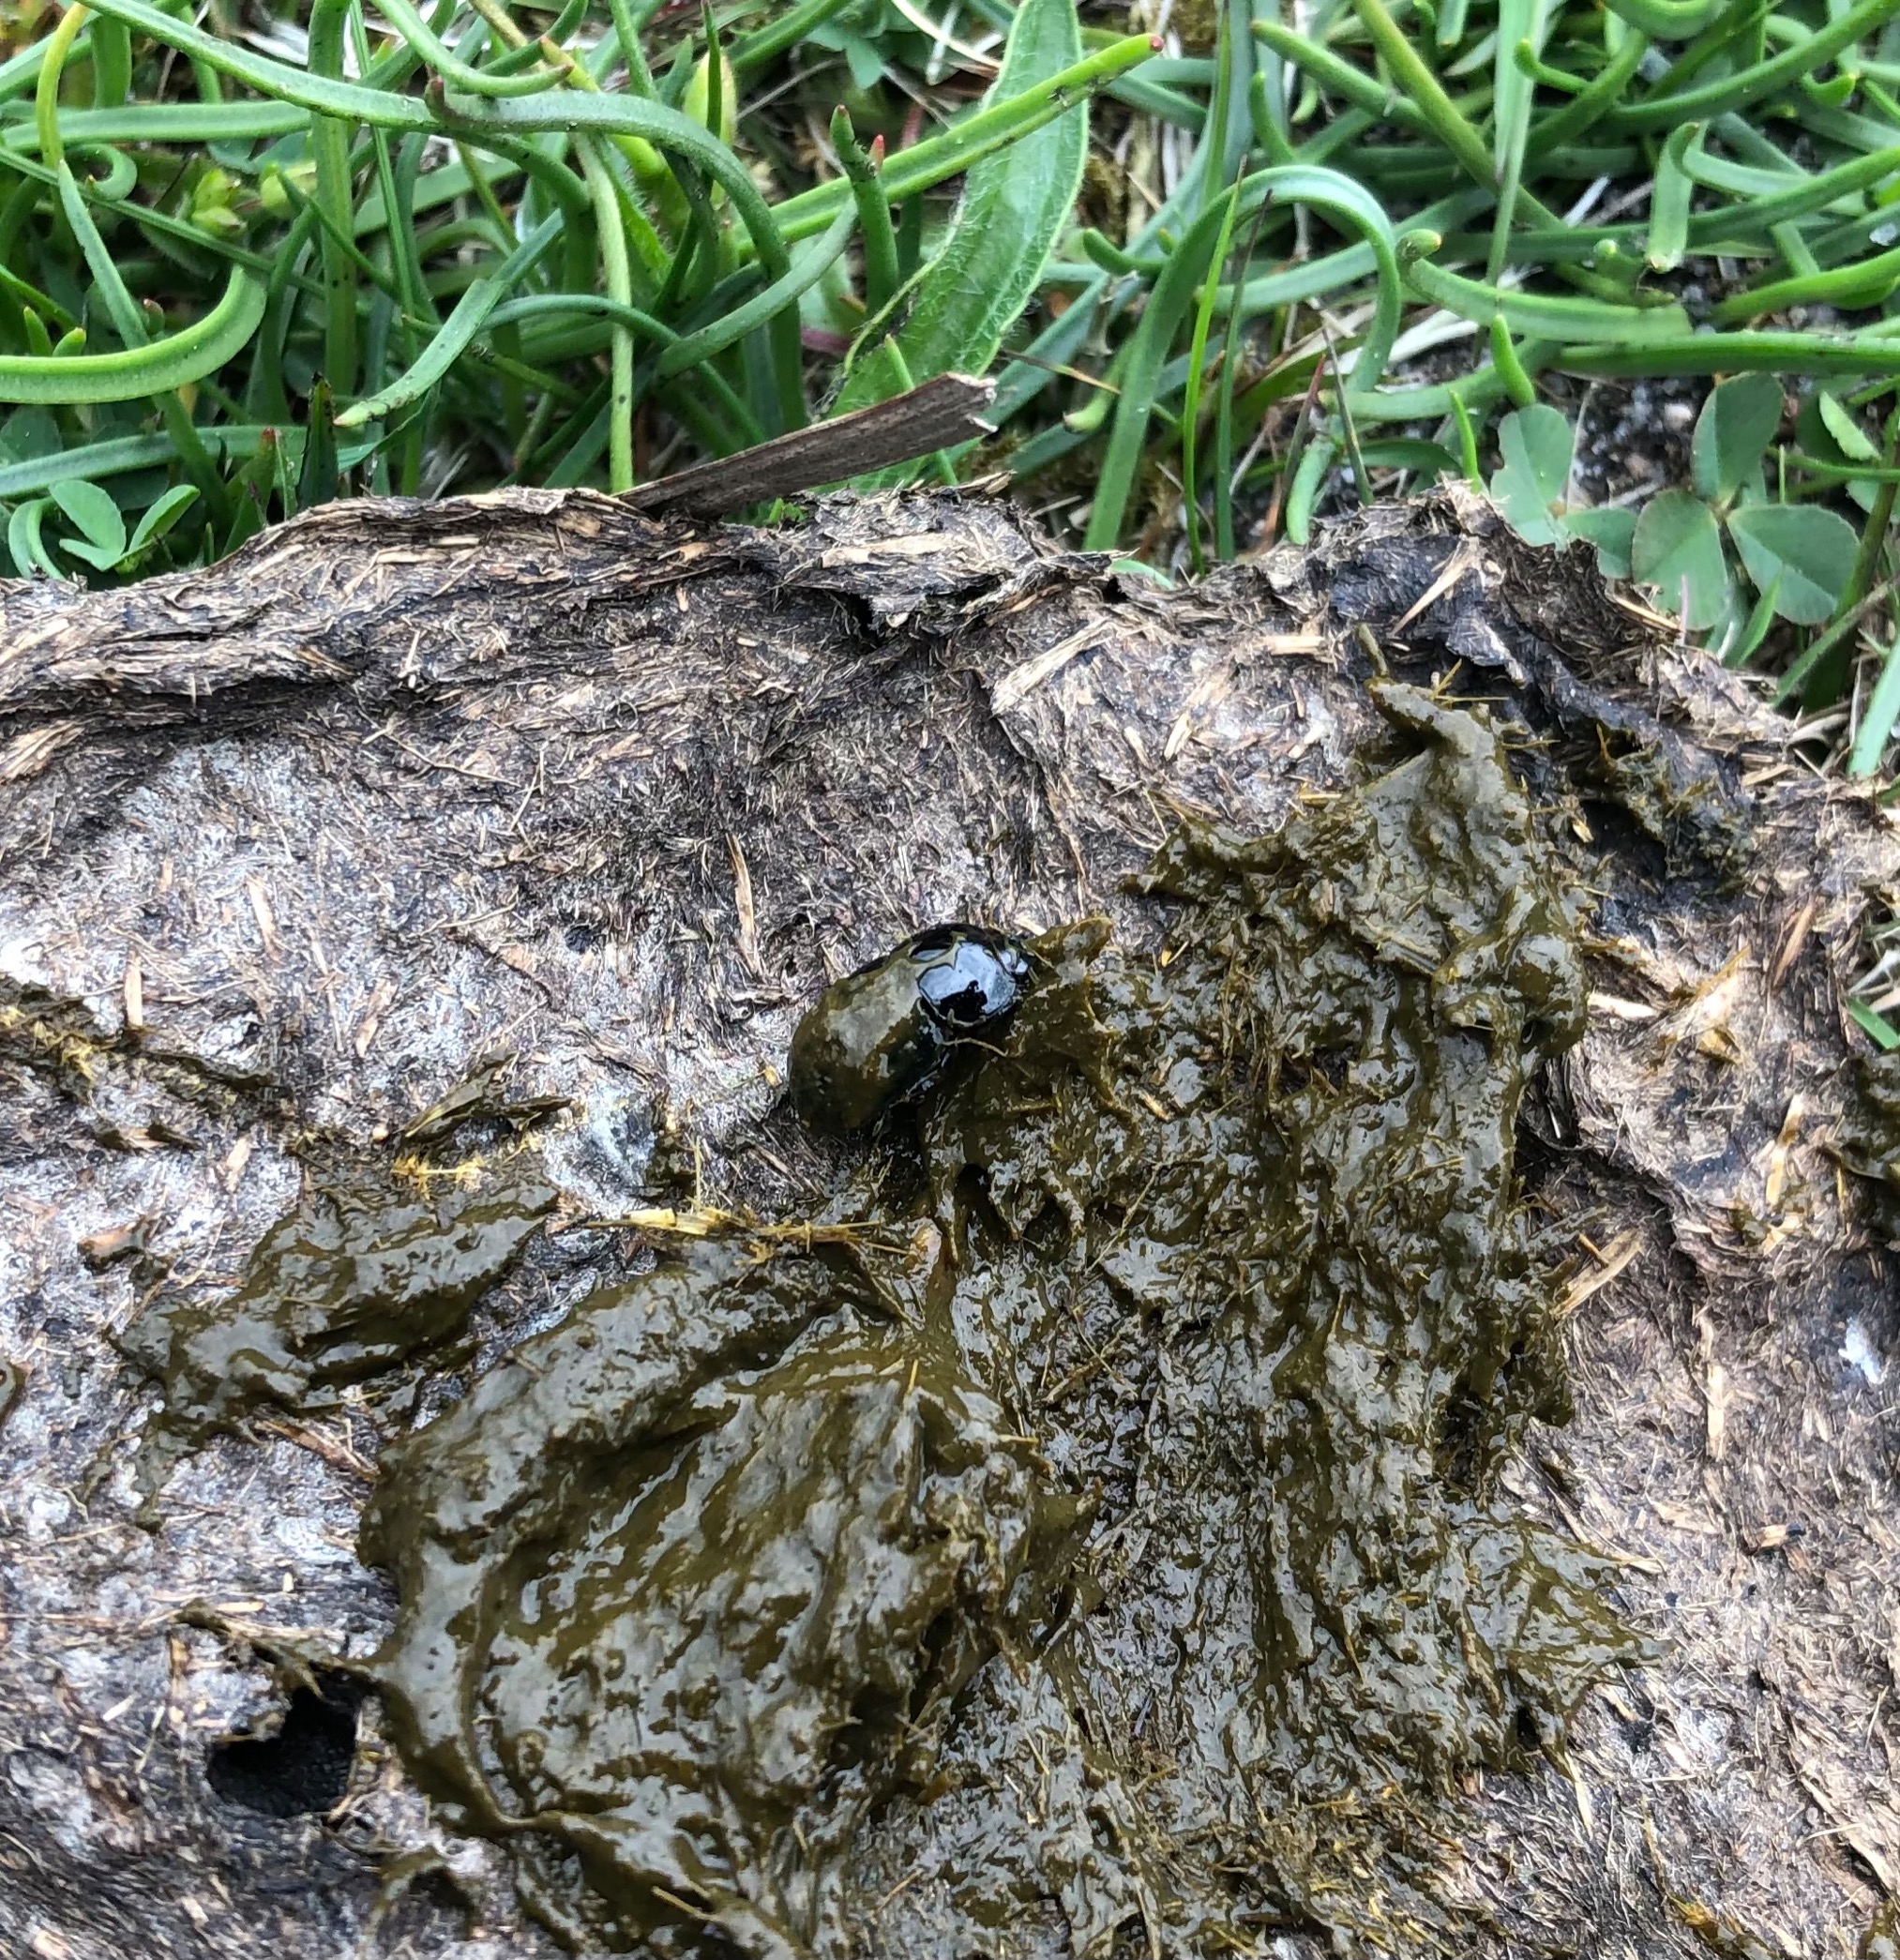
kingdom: Animalia
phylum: Arthropoda
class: Insecta
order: Coleoptera
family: Scarabaeidae
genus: Teuchestes
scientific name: Teuchestes fossor
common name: Stor møgbille
